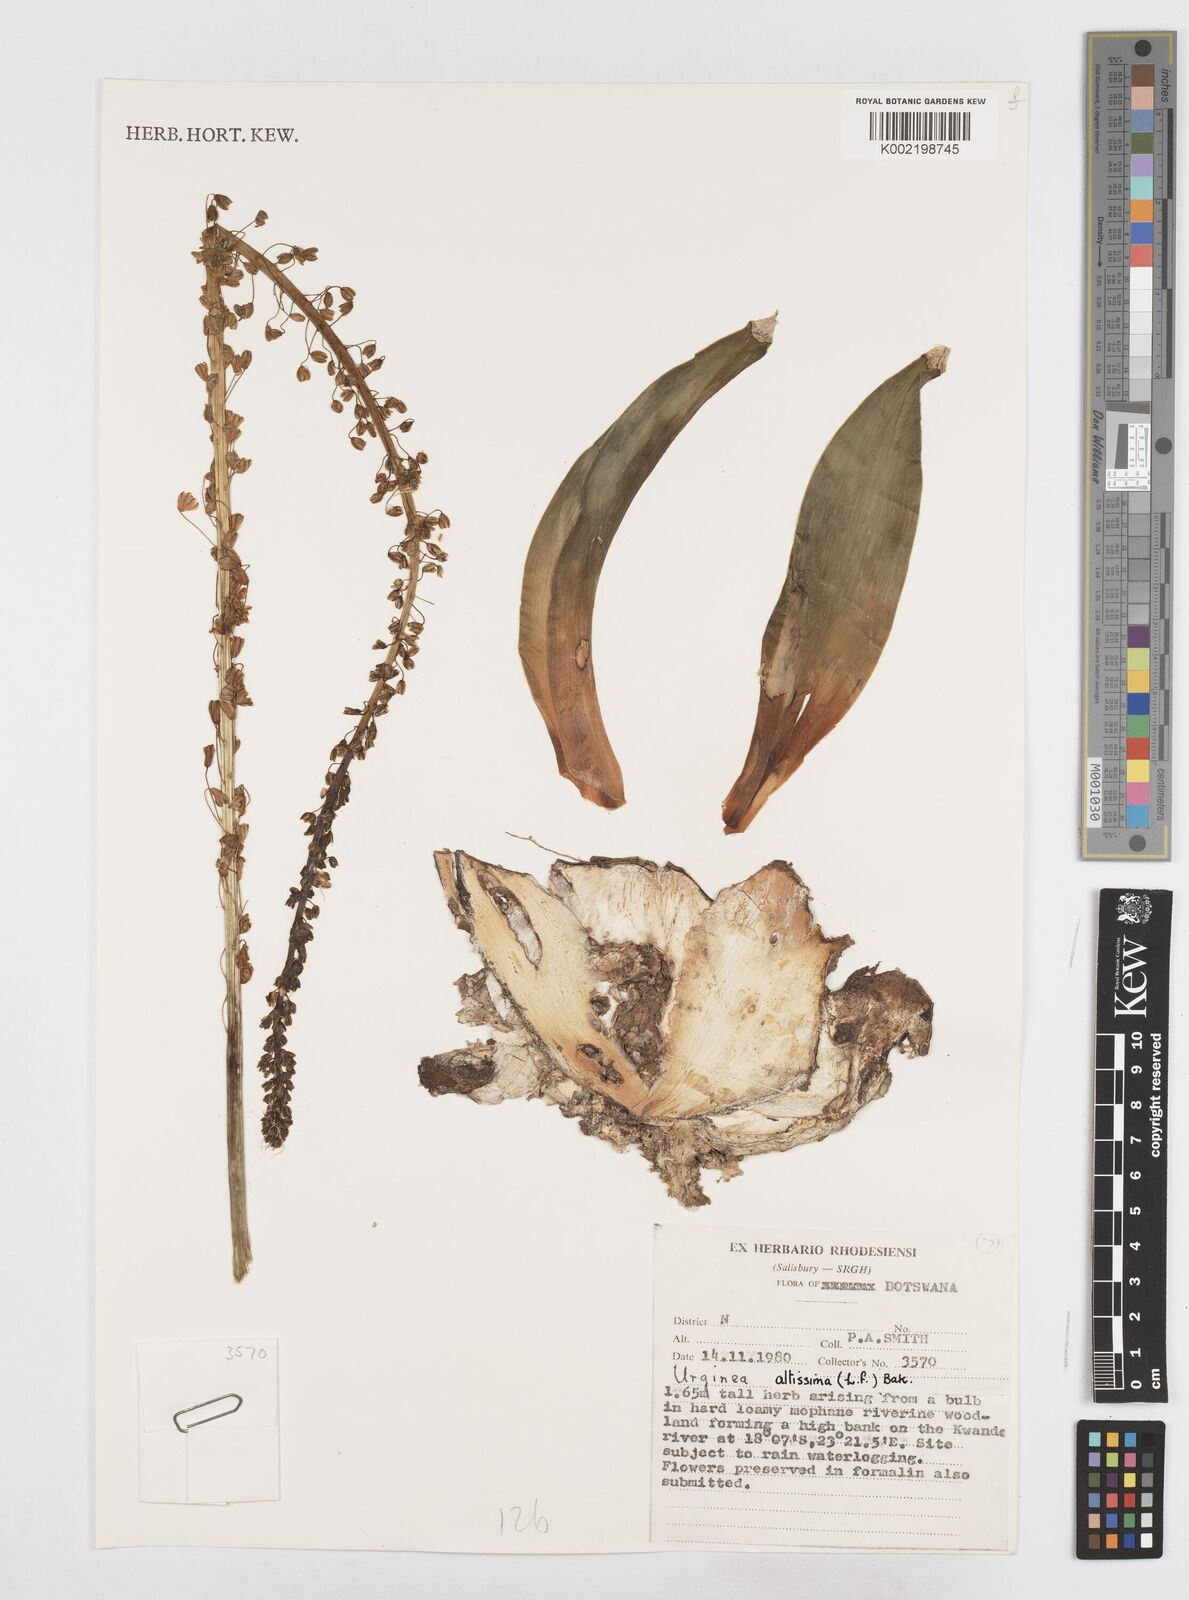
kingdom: Plantae
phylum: Tracheophyta
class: Liliopsida
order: Asparagales
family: Asparagaceae
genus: Drimia
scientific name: Drimia altissima
